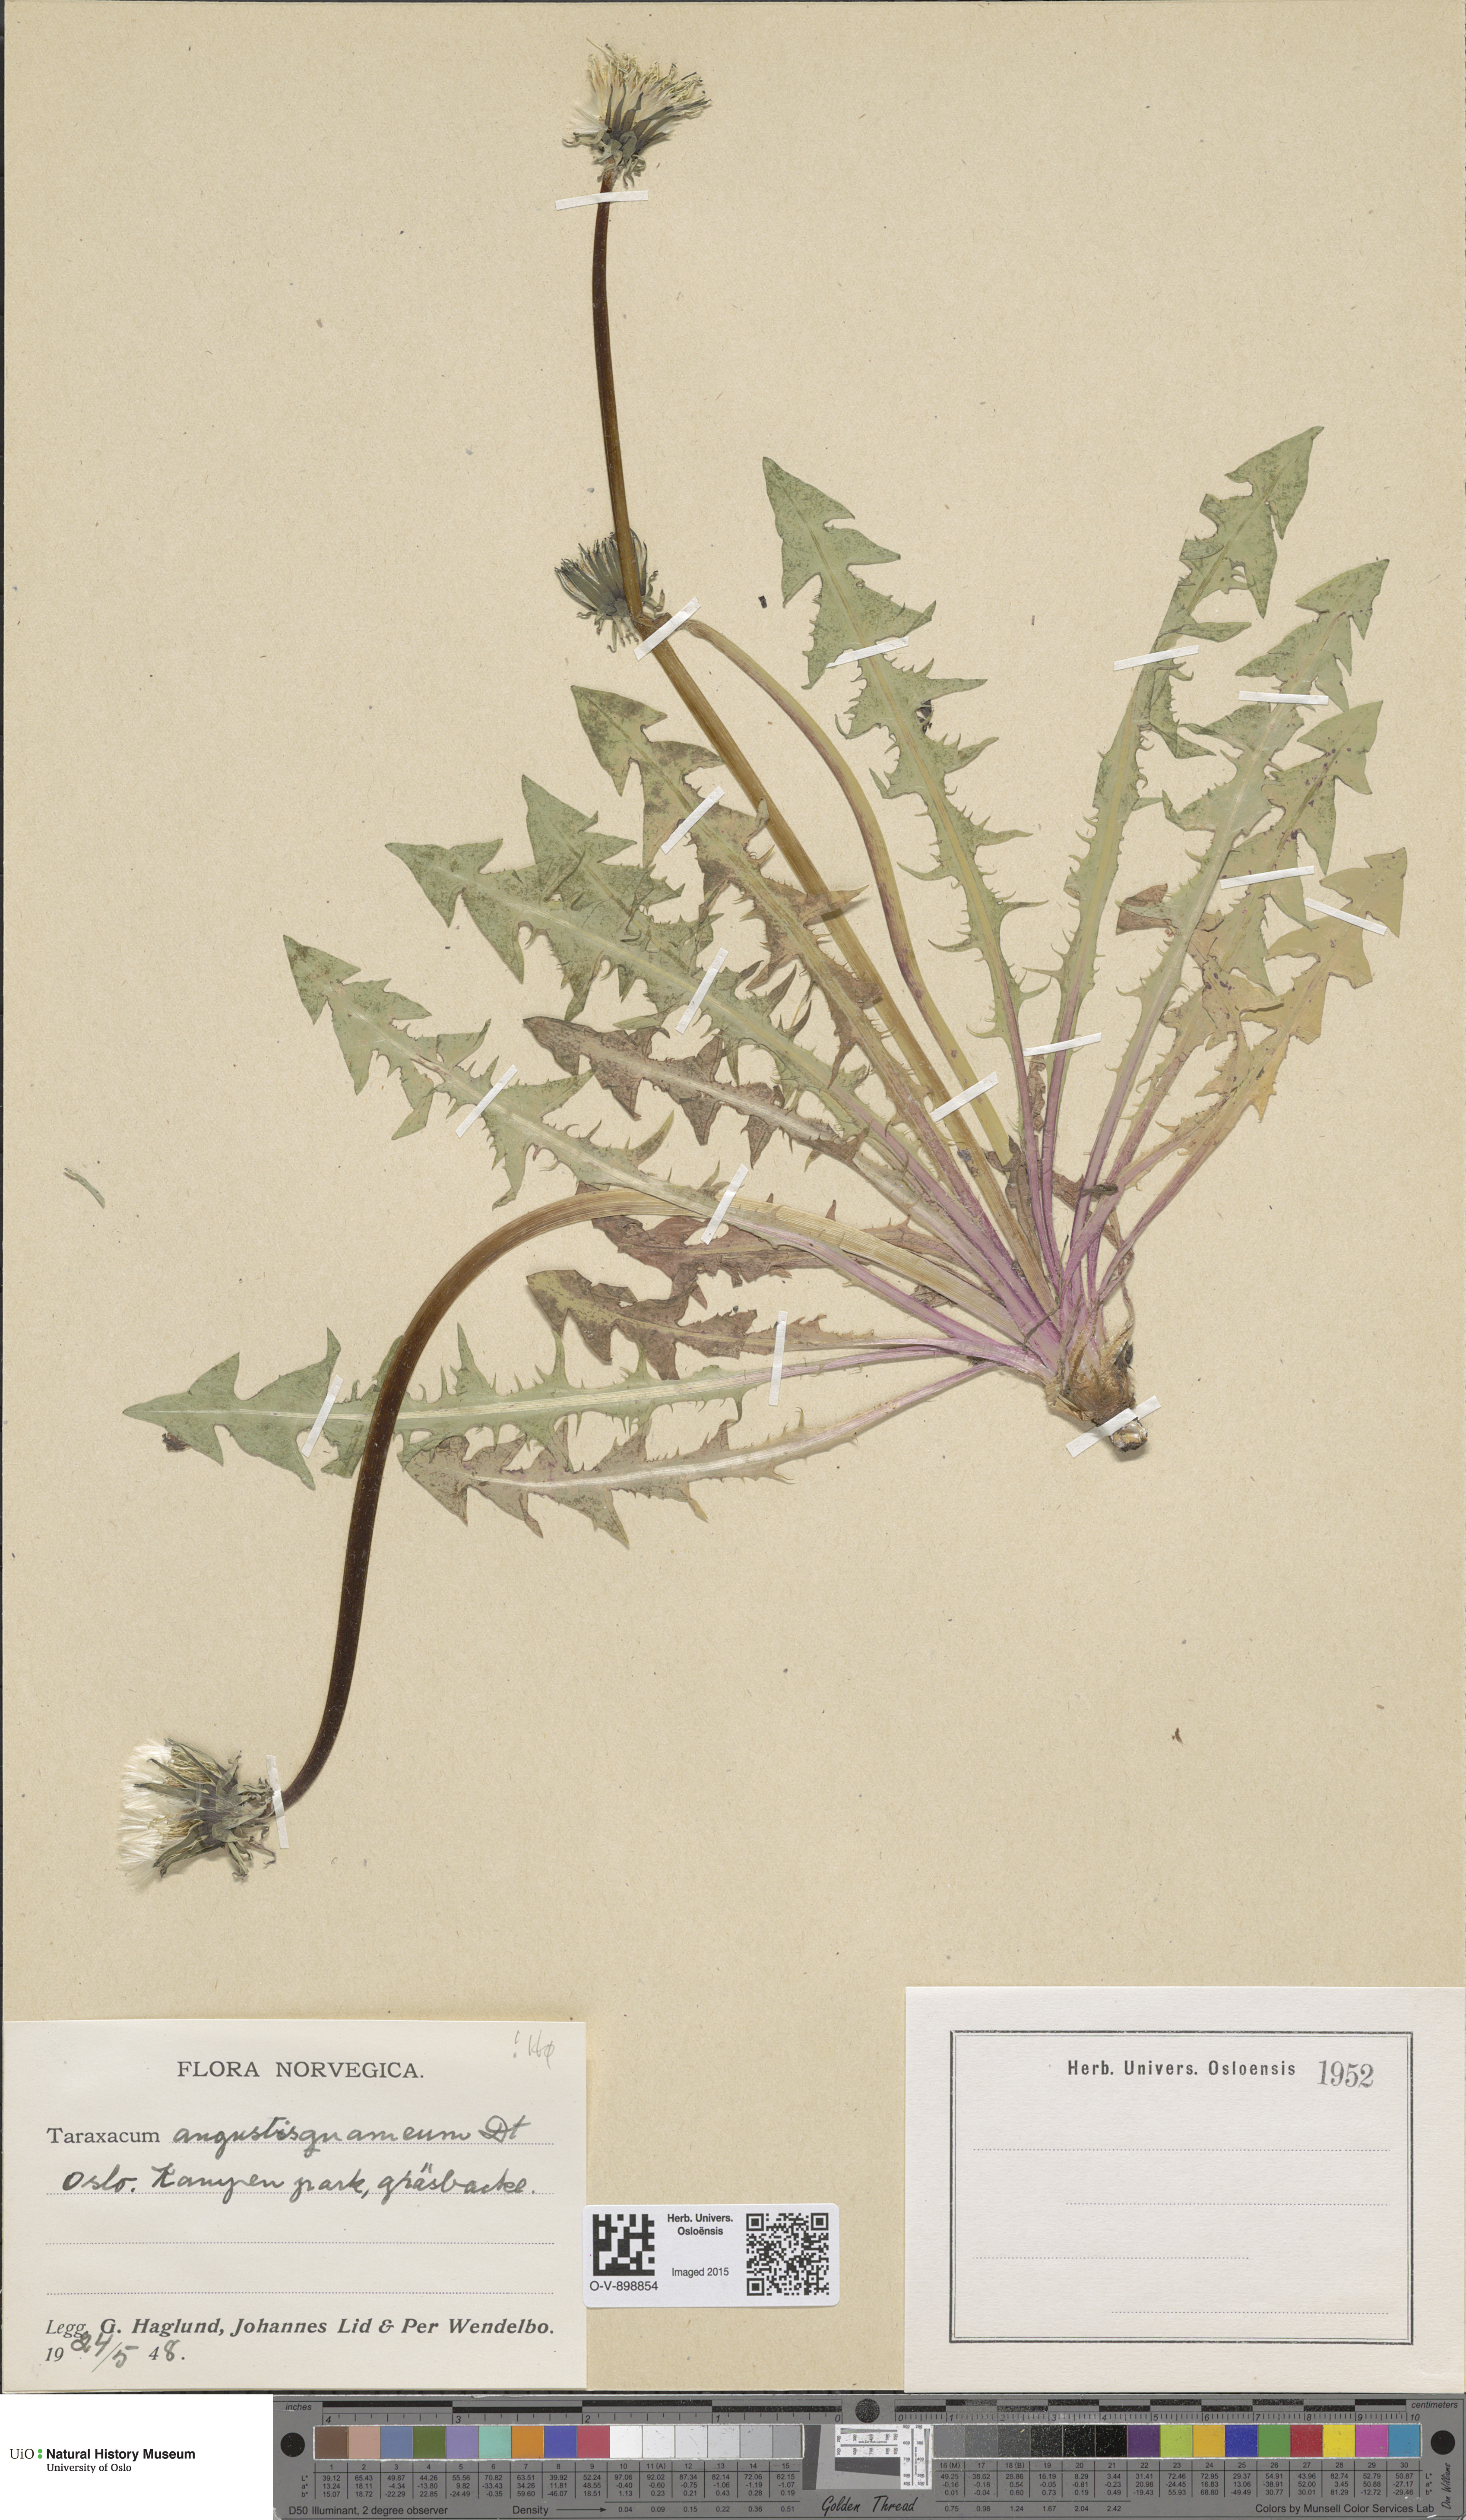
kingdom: Plantae
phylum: Tracheophyta
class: Magnoliopsida
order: Asterales
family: Asteraceae
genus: Taraxacum
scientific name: Taraxacum angustisquameum
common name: Multilobed dandelion
